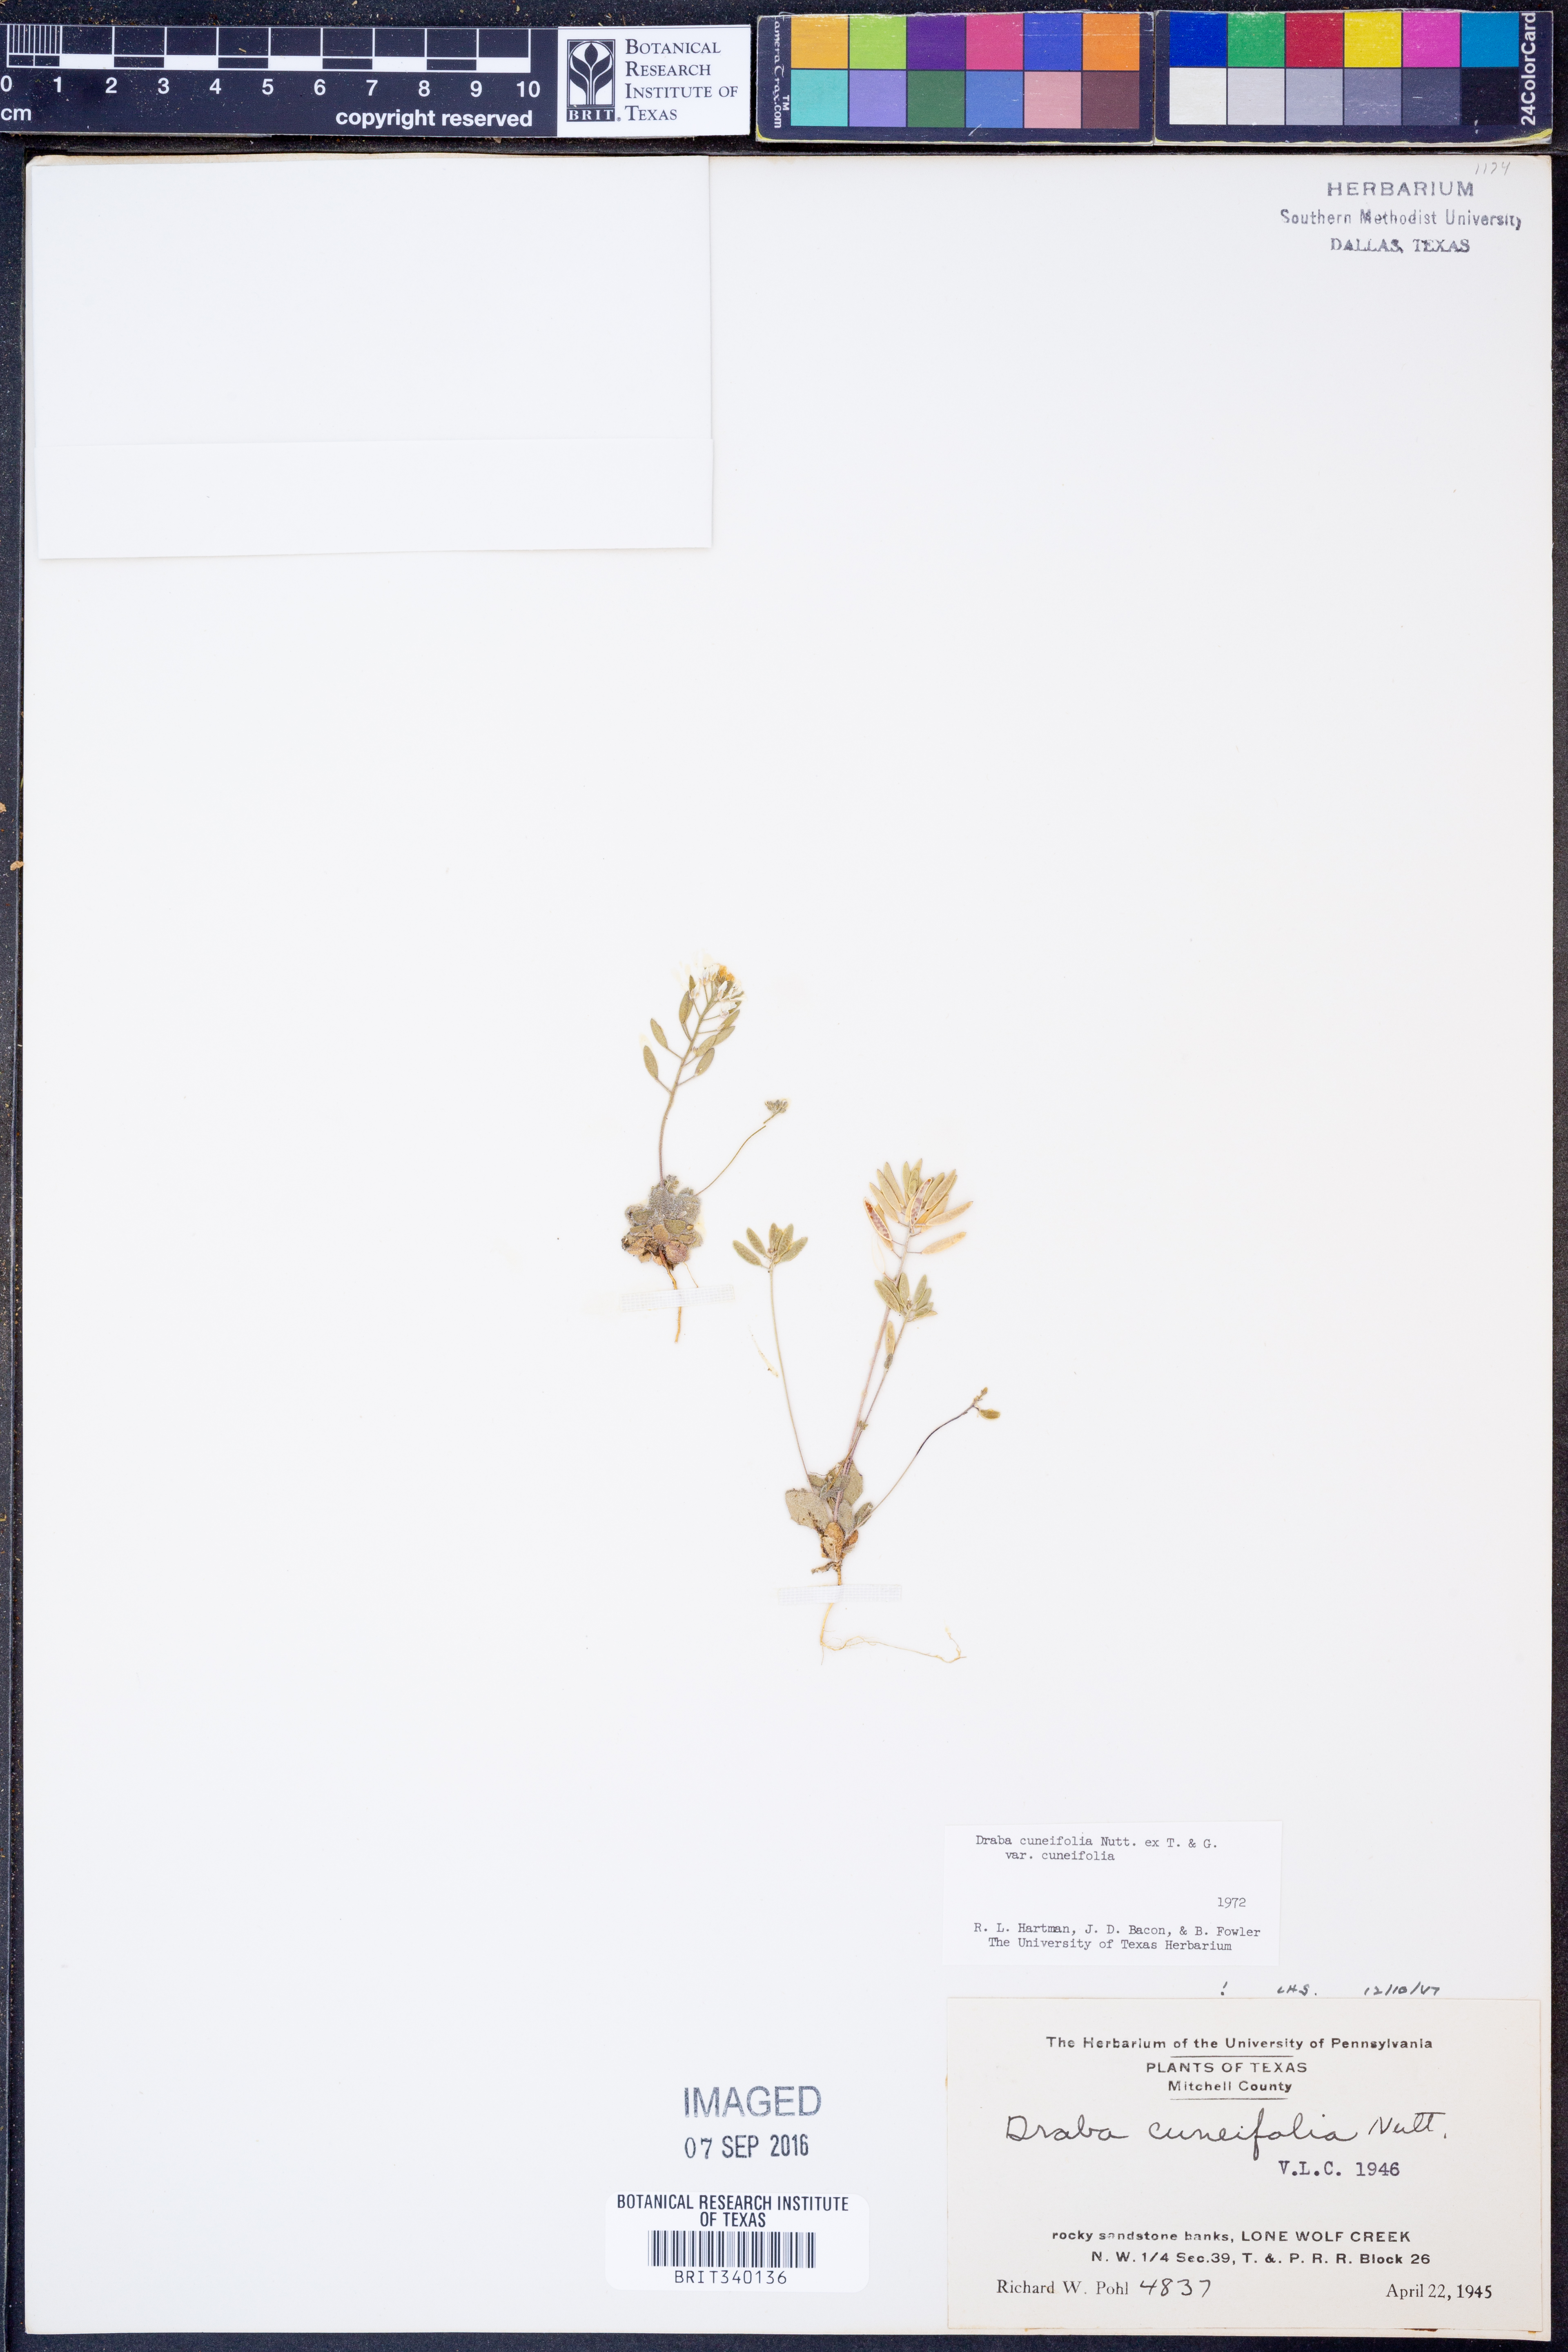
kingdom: Plantae
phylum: Tracheophyta
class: Magnoliopsida
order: Brassicales
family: Brassicaceae
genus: Tomostima
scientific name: Tomostima cuneifolia
